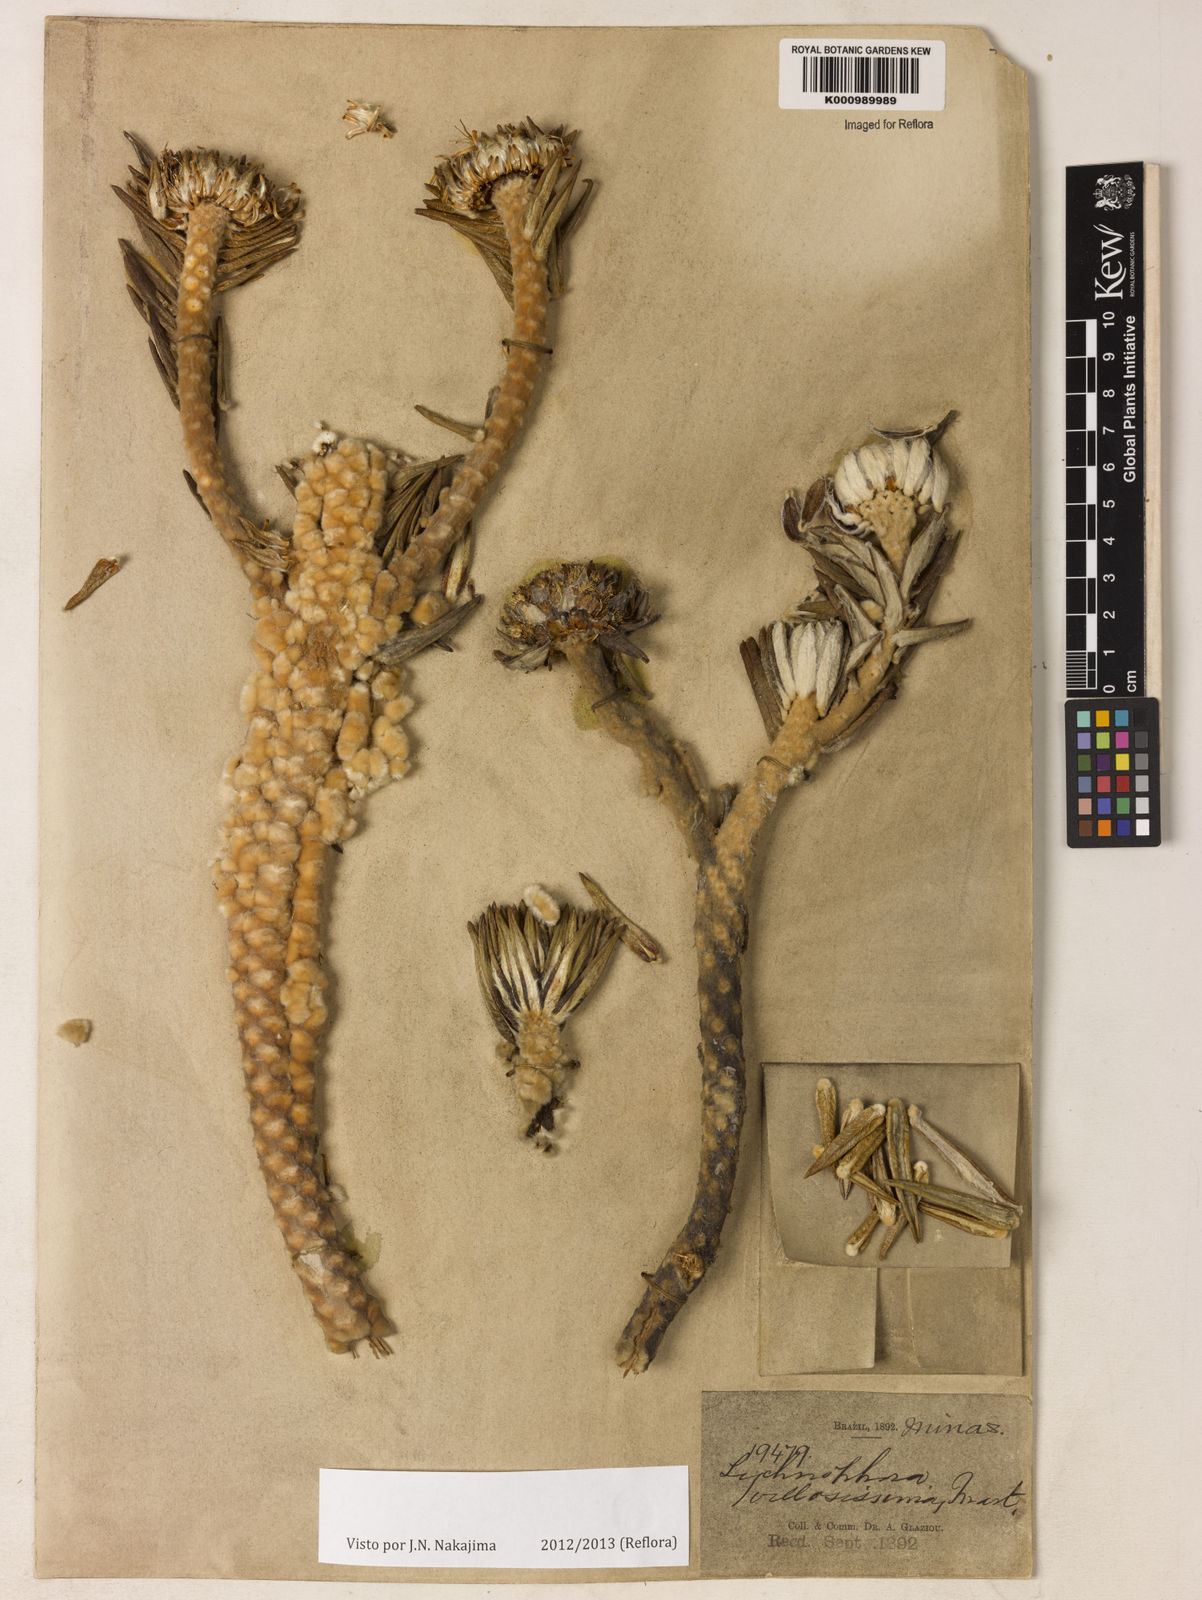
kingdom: Plantae
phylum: Tracheophyta
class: Magnoliopsida
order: Asterales
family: Asteraceae
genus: Lychnophora
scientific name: Lychnophora villosissima
